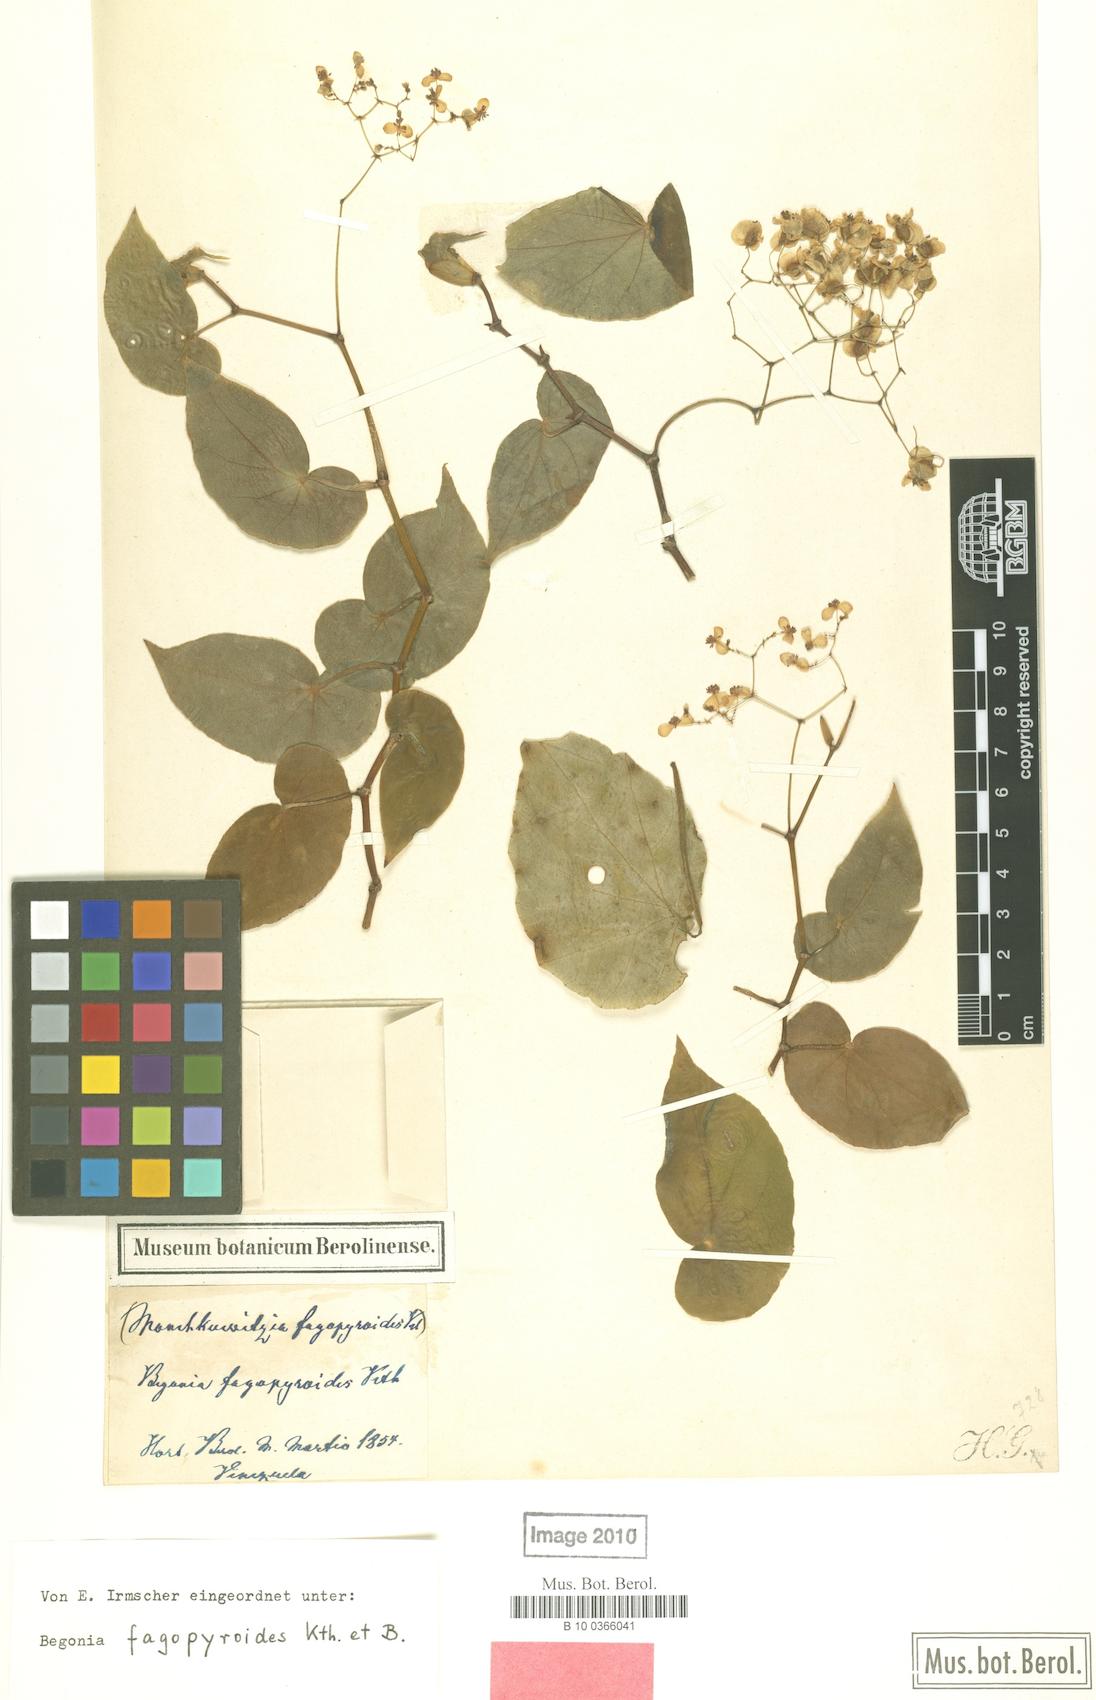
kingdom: Plantae
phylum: Tracheophyta
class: Magnoliopsida
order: Cucurbitales
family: Begoniaceae
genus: Begonia
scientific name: Begonia denticulata
